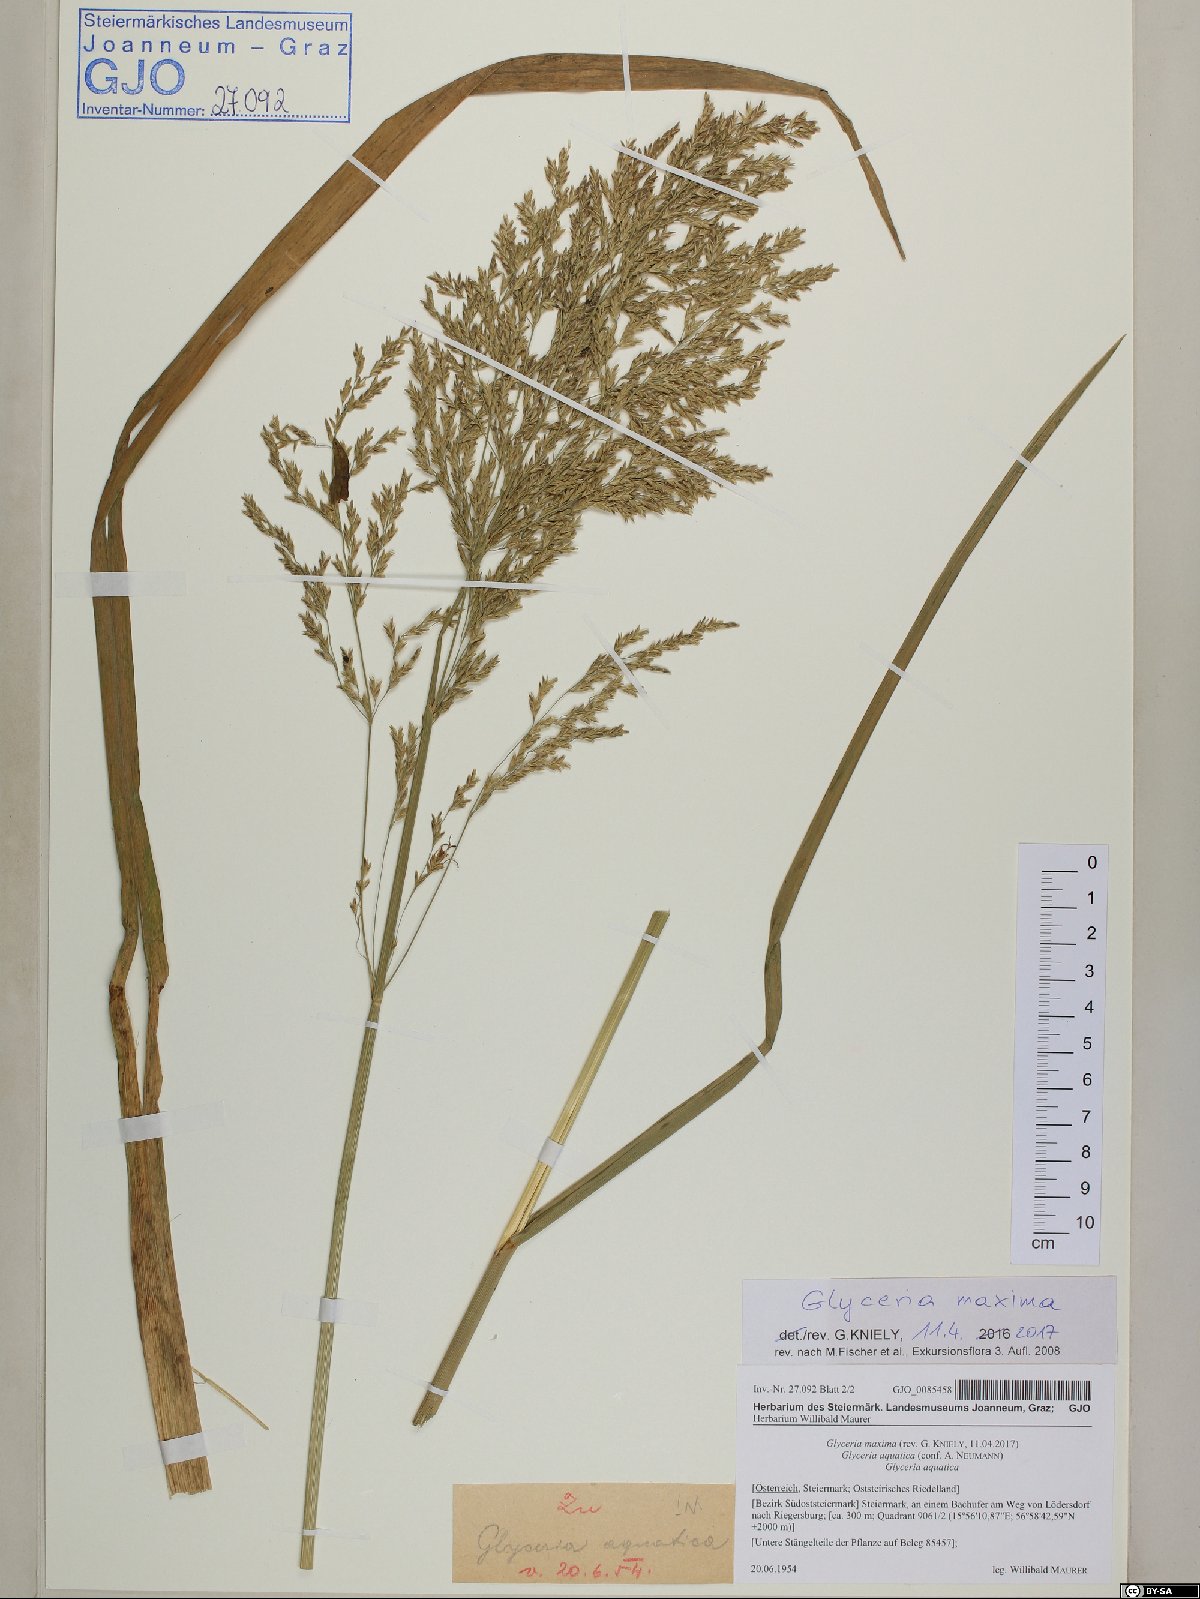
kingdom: Plantae
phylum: Tracheophyta
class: Liliopsida
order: Poales
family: Poaceae
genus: Glyceria
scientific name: Glyceria maxima
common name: Reed mannagrass
